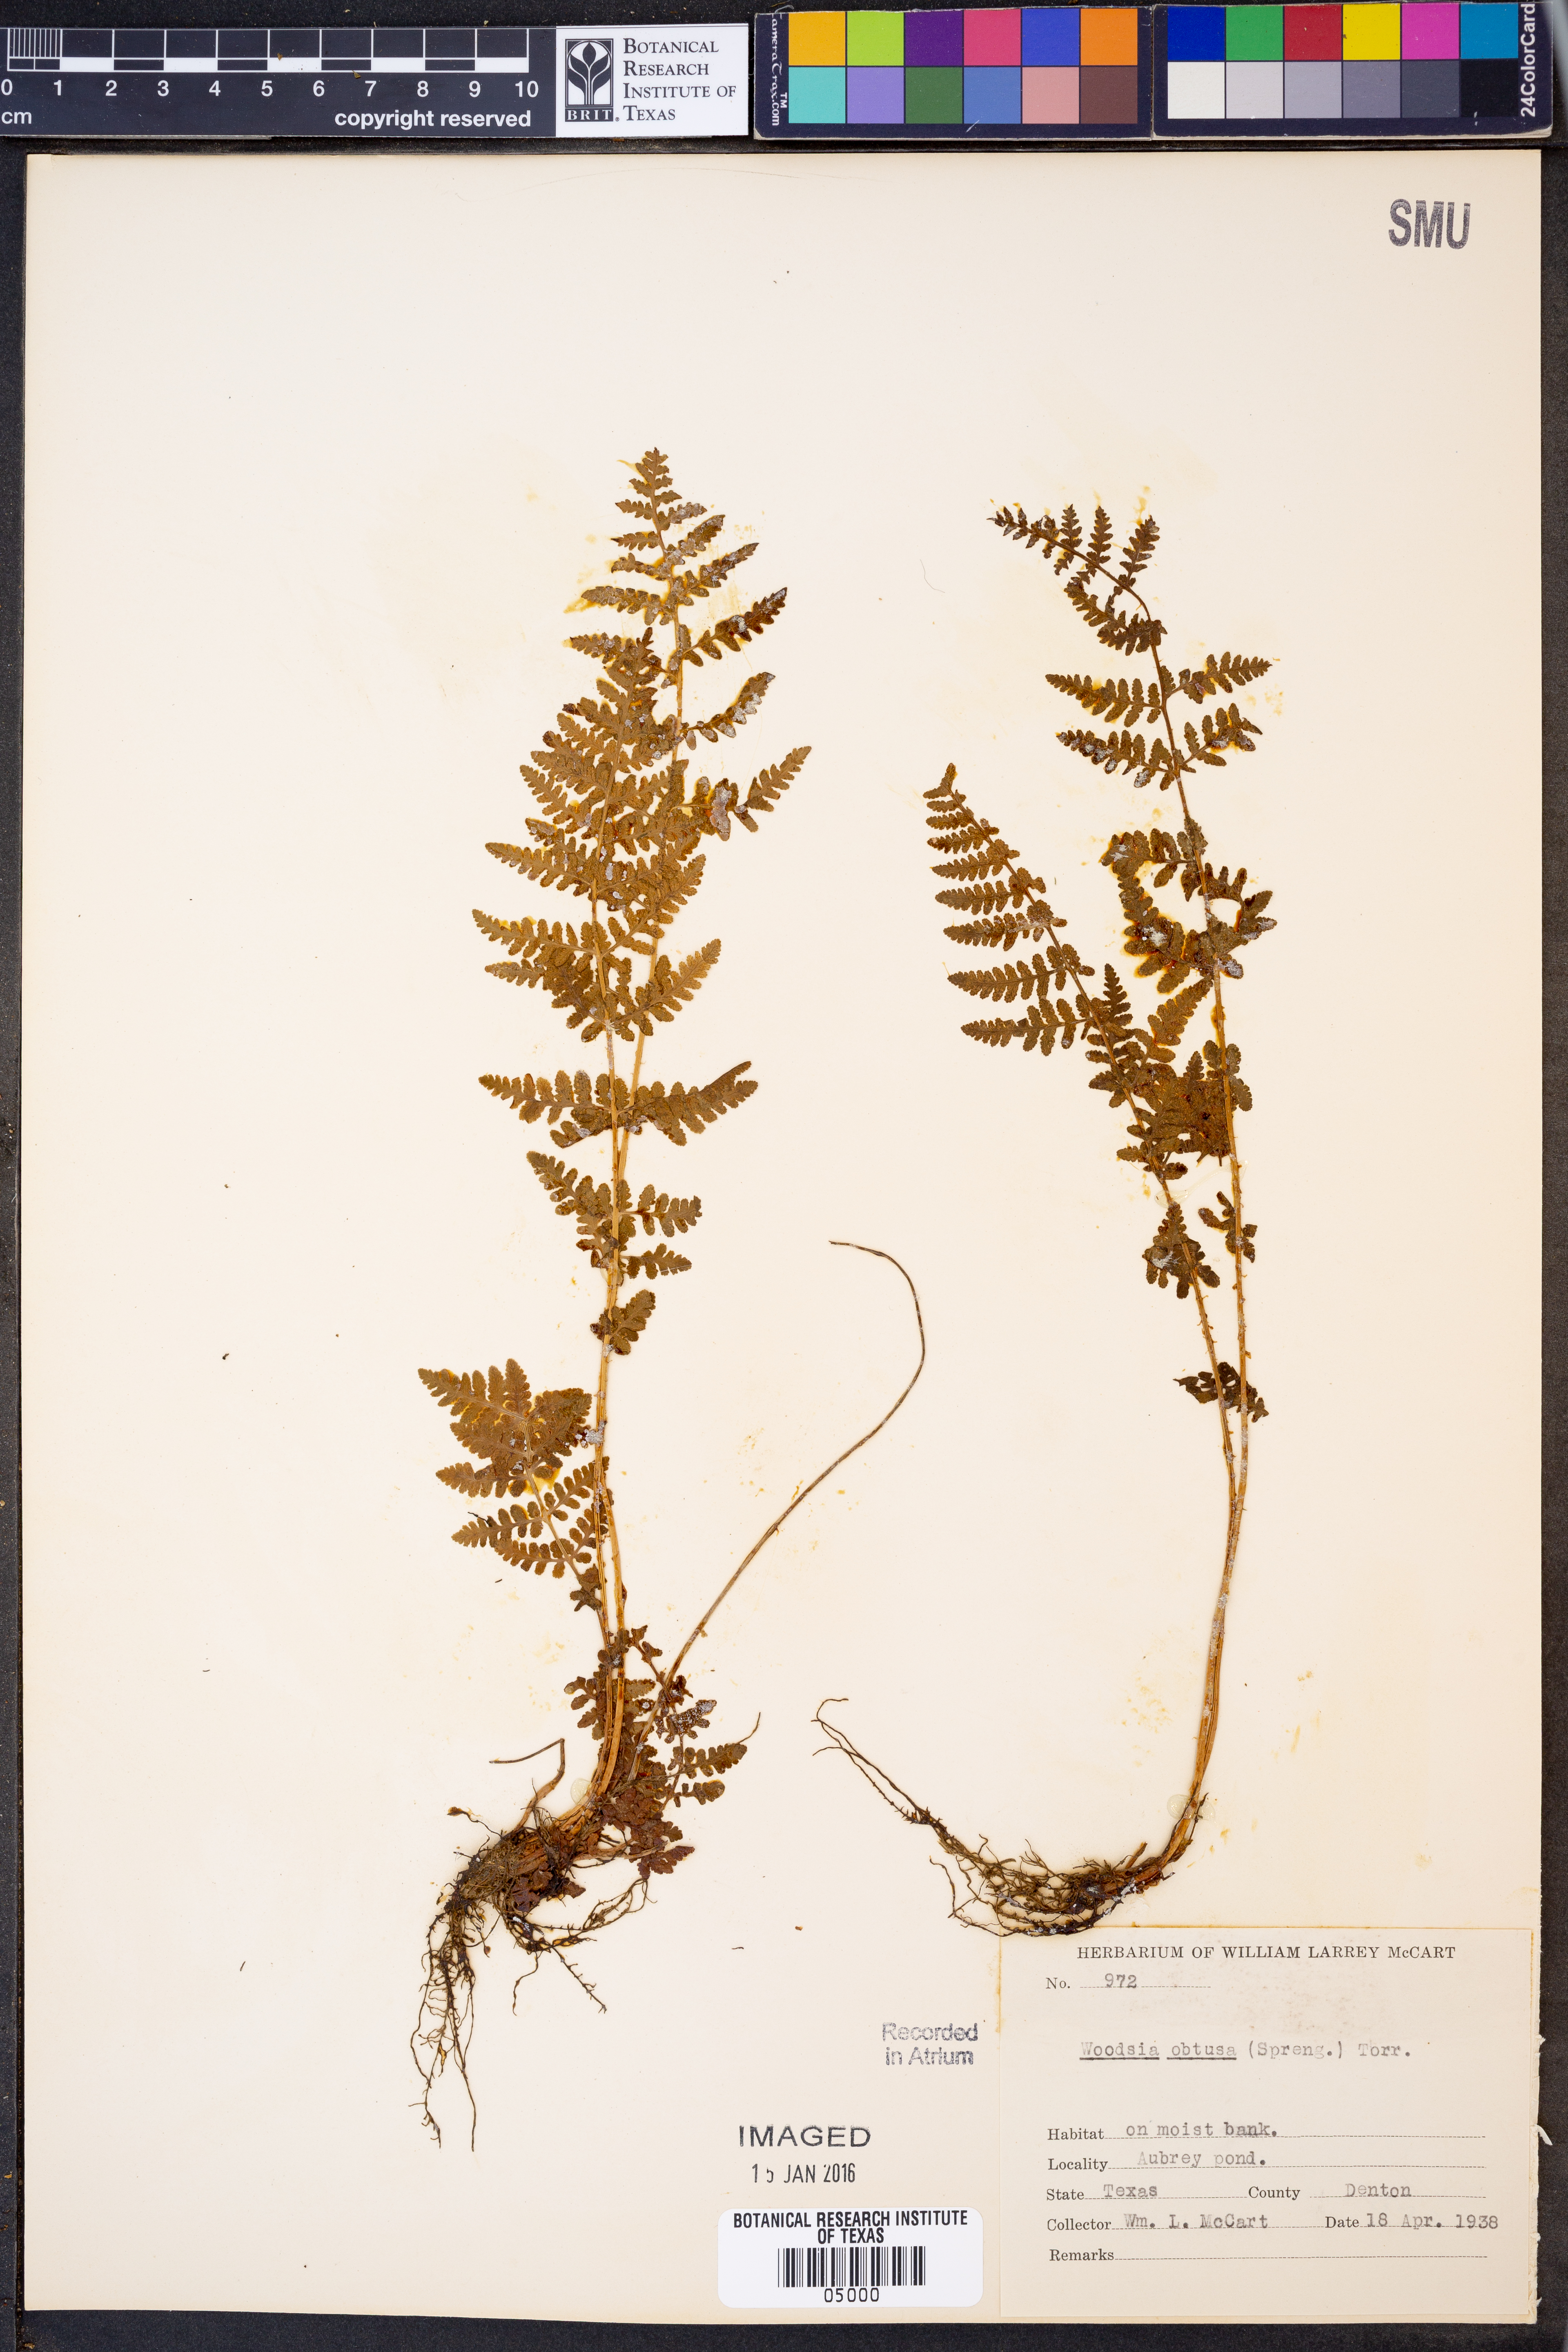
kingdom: Plantae
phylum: Tracheophyta
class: Polypodiopsida
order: Polypodiales
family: Woodsiaceae
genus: Physematium
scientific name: Physematium obtusum
